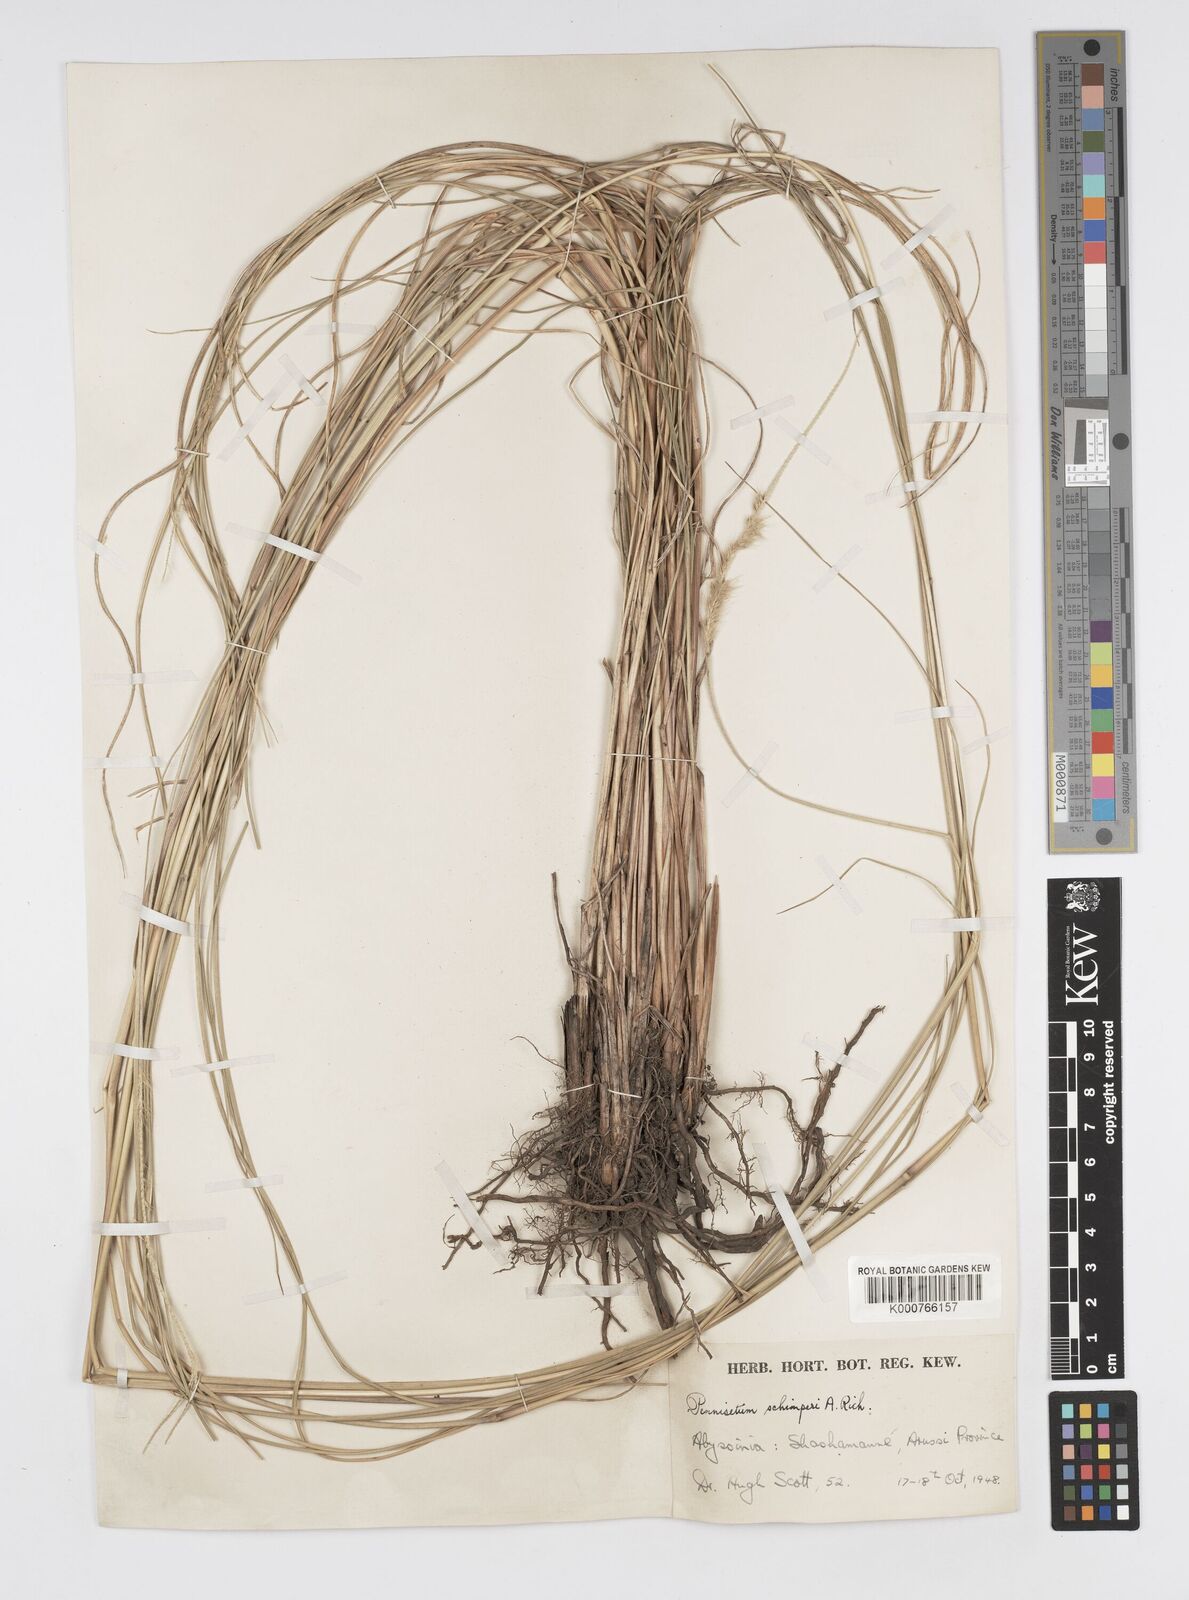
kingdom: Plantae
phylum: Tracheophyta
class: Liliopsida
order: Poales
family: Poaceae
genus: Cenchrus
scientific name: Cenchrus sphacelatus
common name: Bulgras
